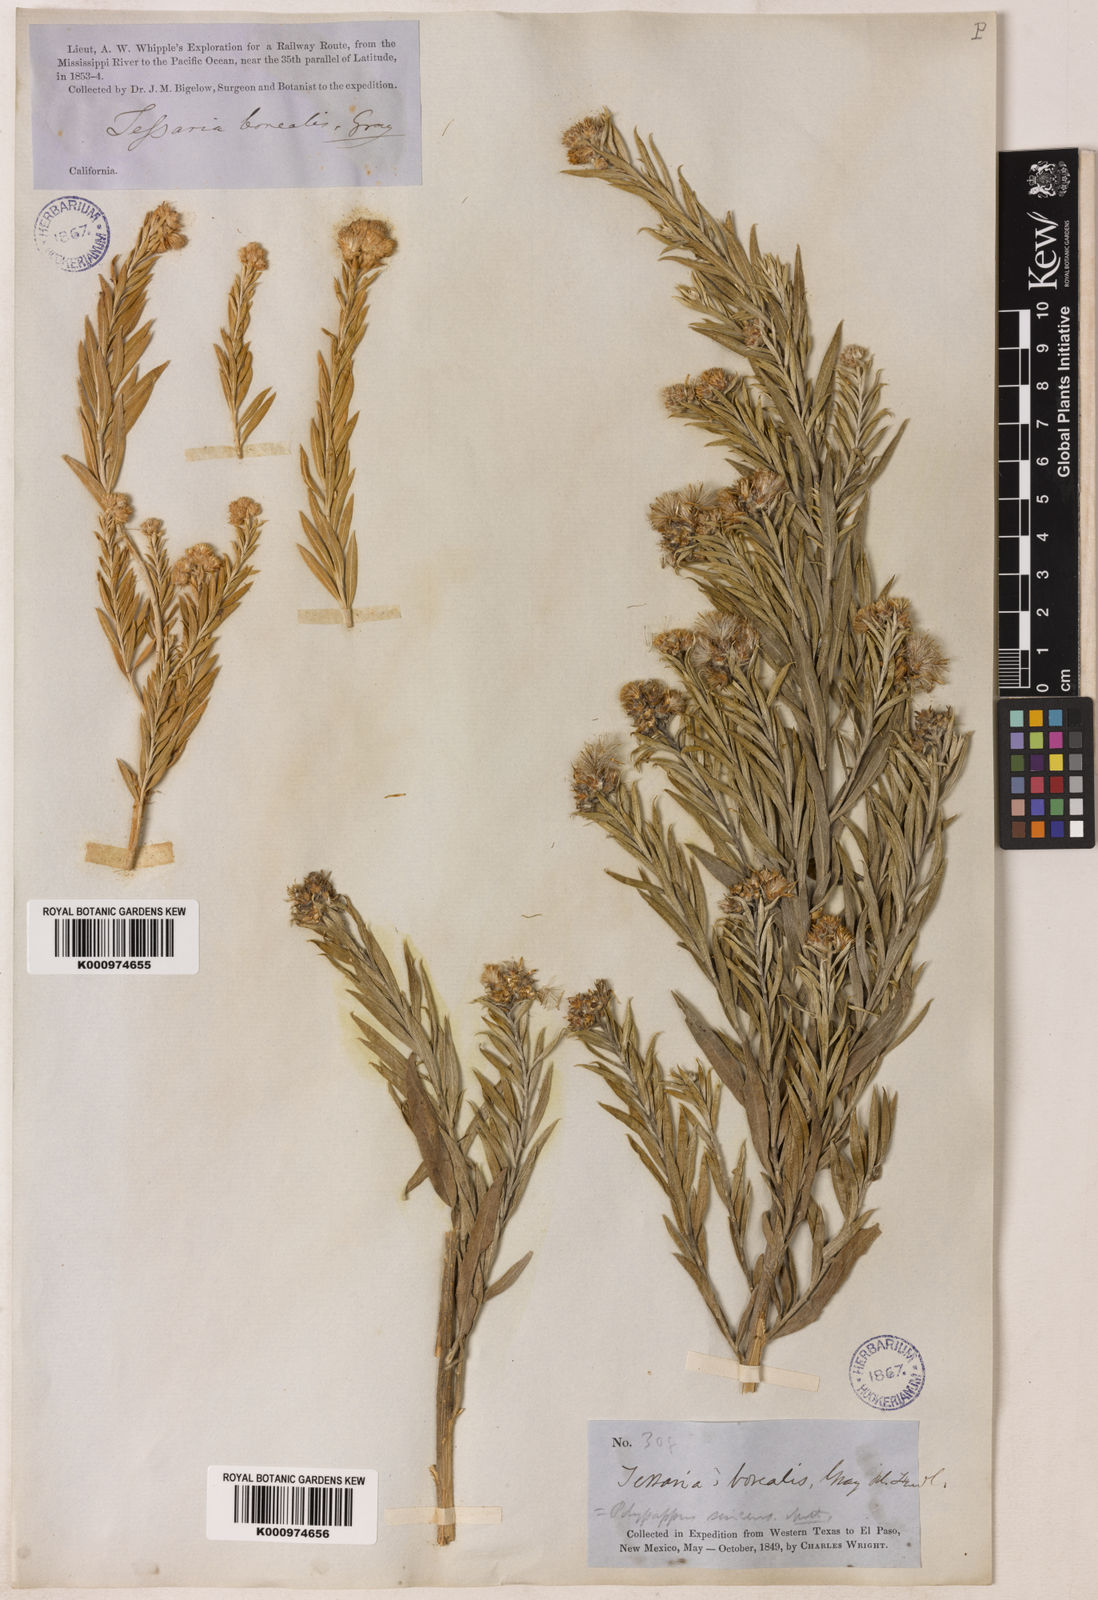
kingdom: Plantae
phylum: Tracheophyta
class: Magnoliopsida
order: Asterales
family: Asteraceae
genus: Pluchea
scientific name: Pluchea sericea
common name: Arrow-weed
